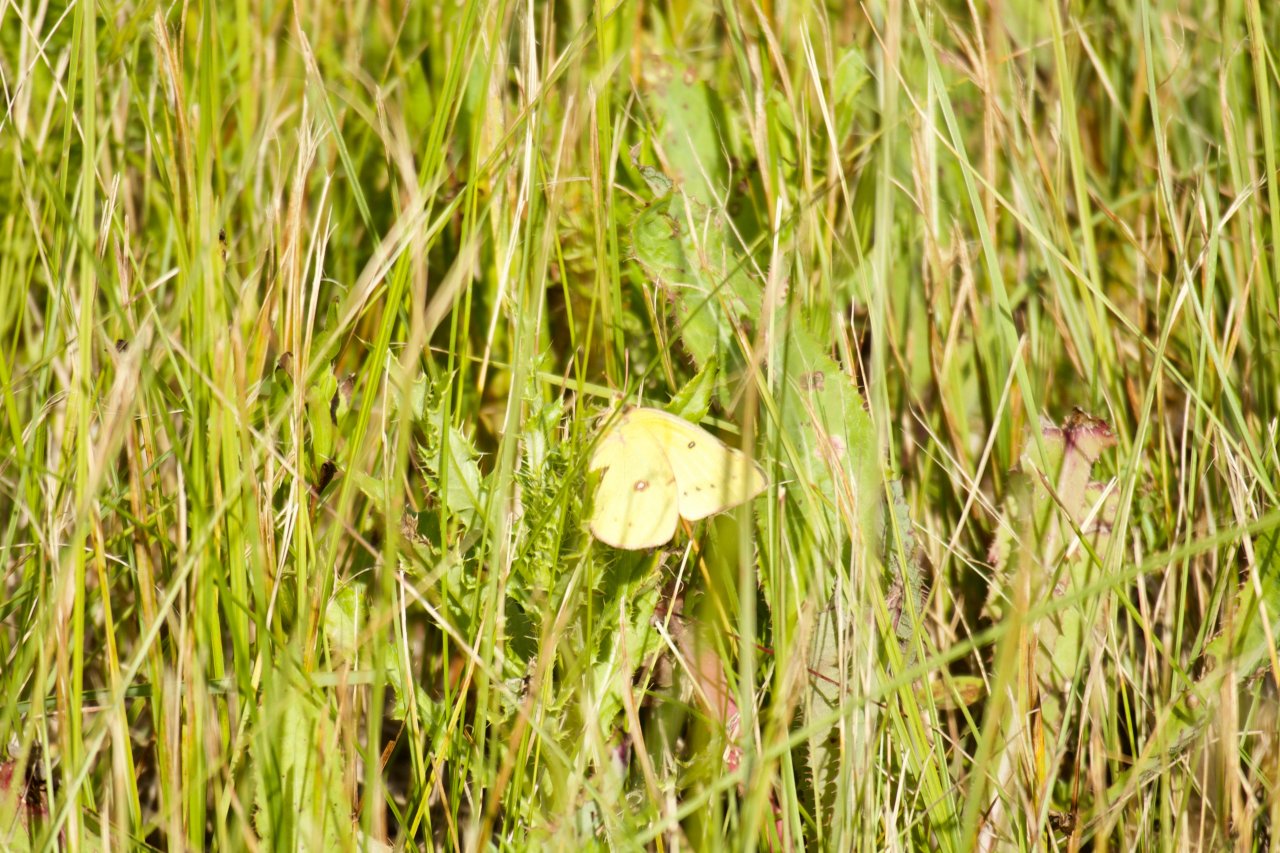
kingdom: Animalia
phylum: Arthropoda
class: Insecta
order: Lepidoptera
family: Pieridae
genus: Colias
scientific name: Colias philodice
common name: Clouded Sulphur
